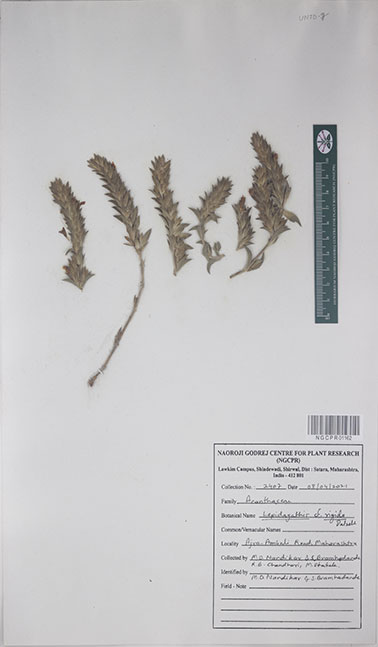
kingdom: Plantae
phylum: Tracheophyta
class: Magnoliopsida
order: Lamiales
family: Acanthaceae
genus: Lepidagathis
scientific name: Lepidagathis rigida
